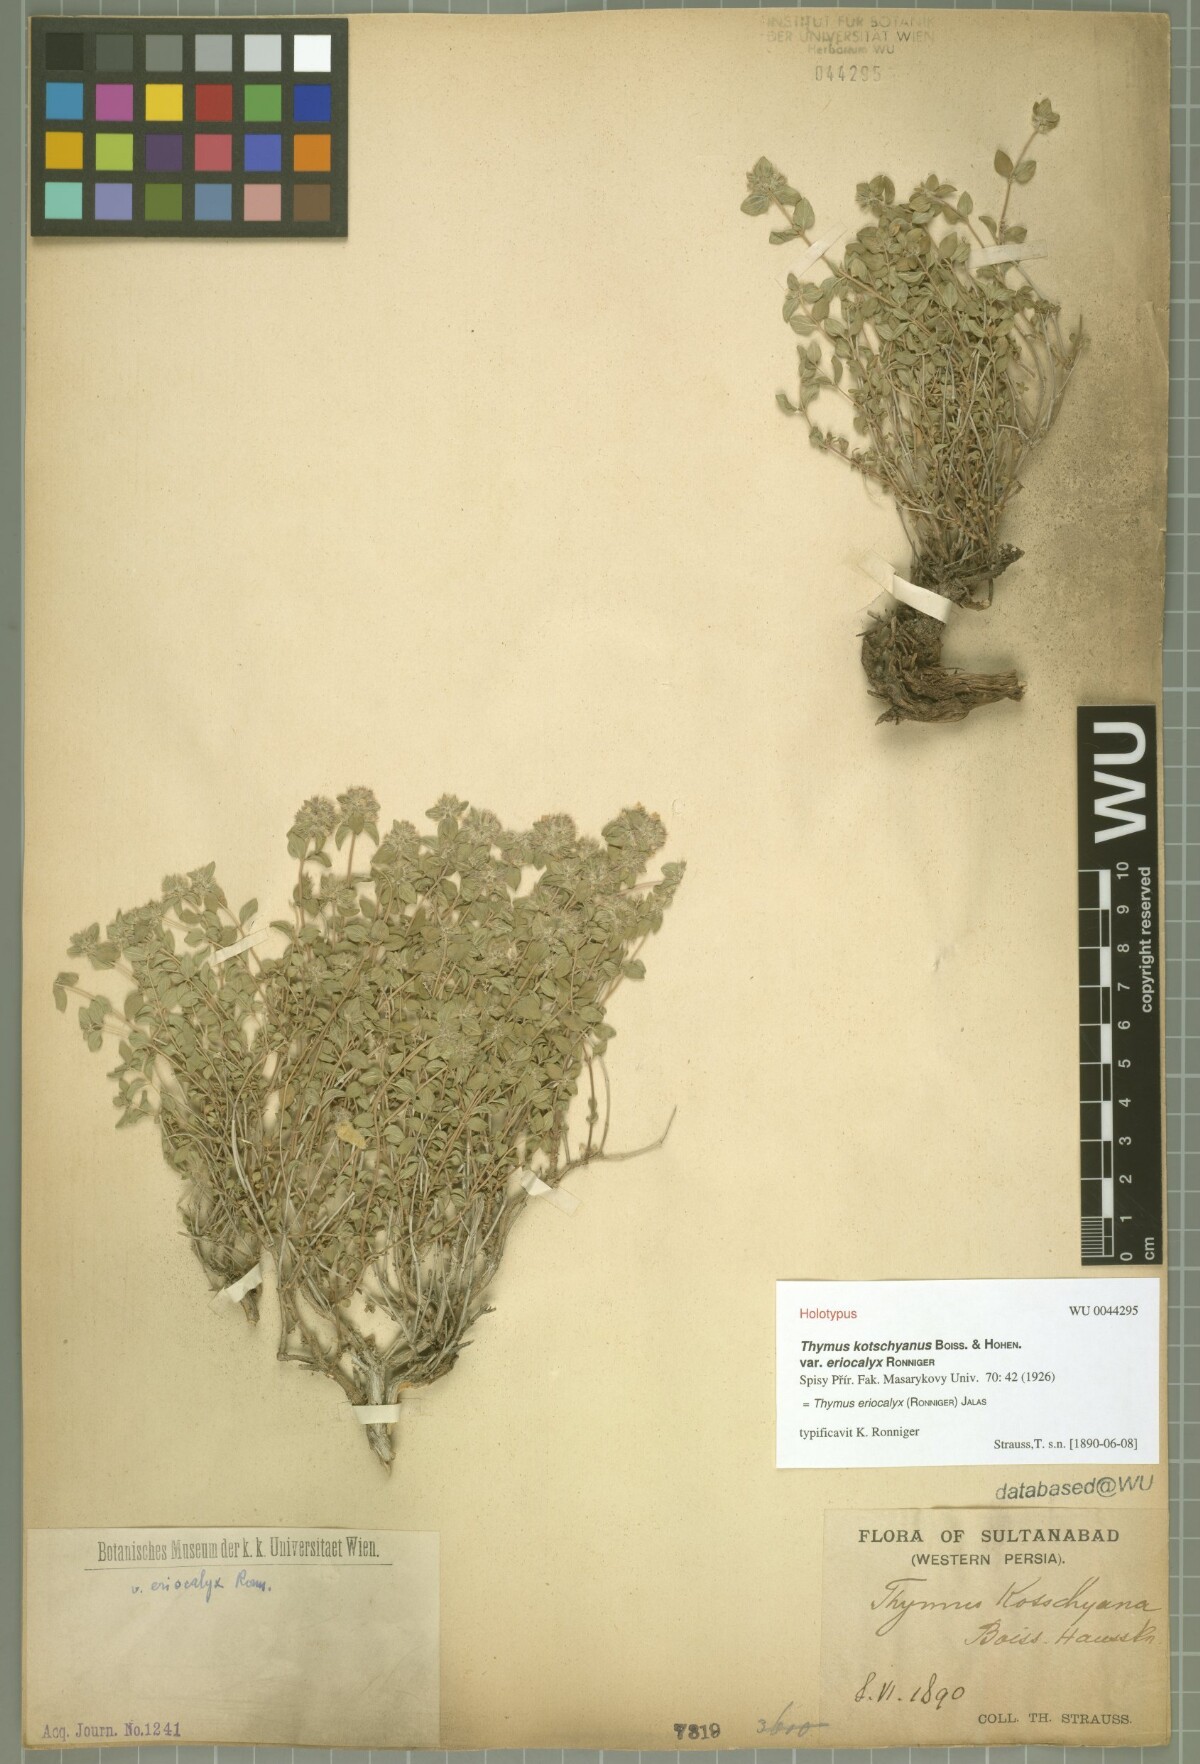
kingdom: Plantae
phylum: Tracheophyta
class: Magnoliopsida
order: Lamiales
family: Lamiaceae
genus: Thymus
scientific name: Thymus eriocalyx
